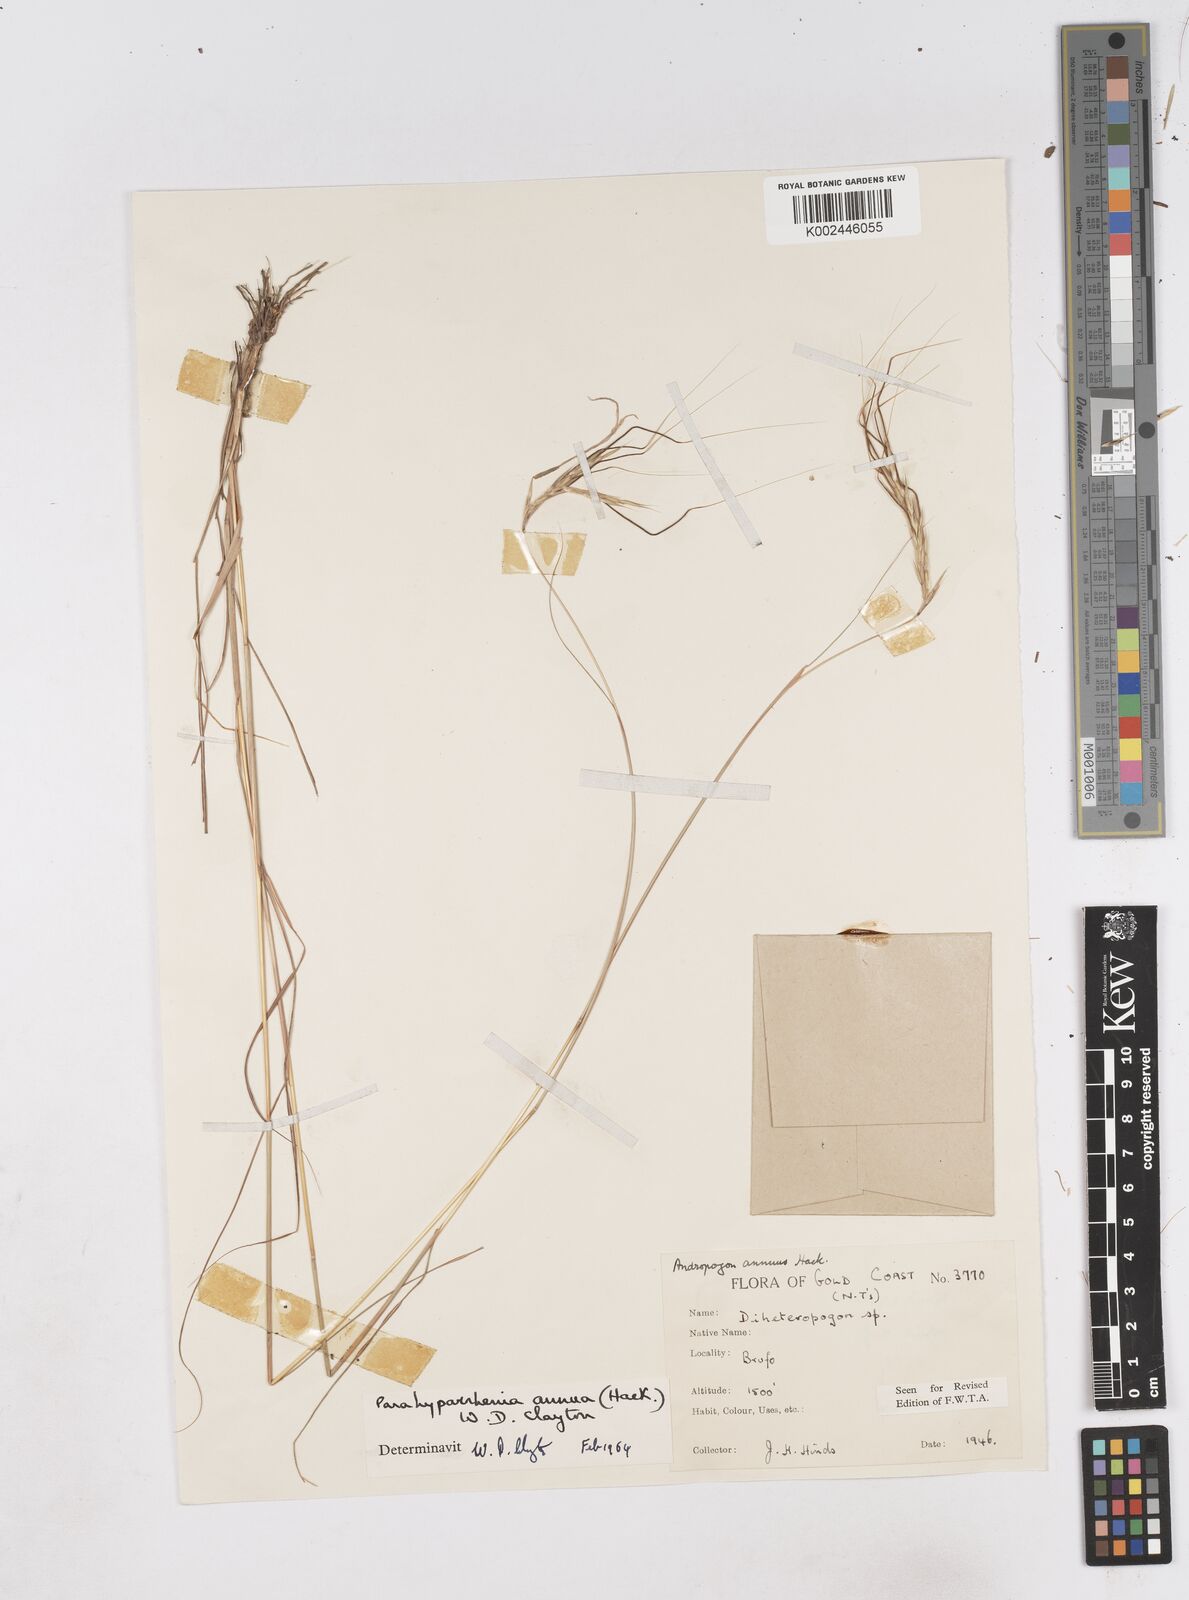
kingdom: Plantae
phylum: Tracheophyta
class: Liliopsida
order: Poales
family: Poaceae
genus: Parahyparrhenia
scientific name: Parahyparrhenia annua
